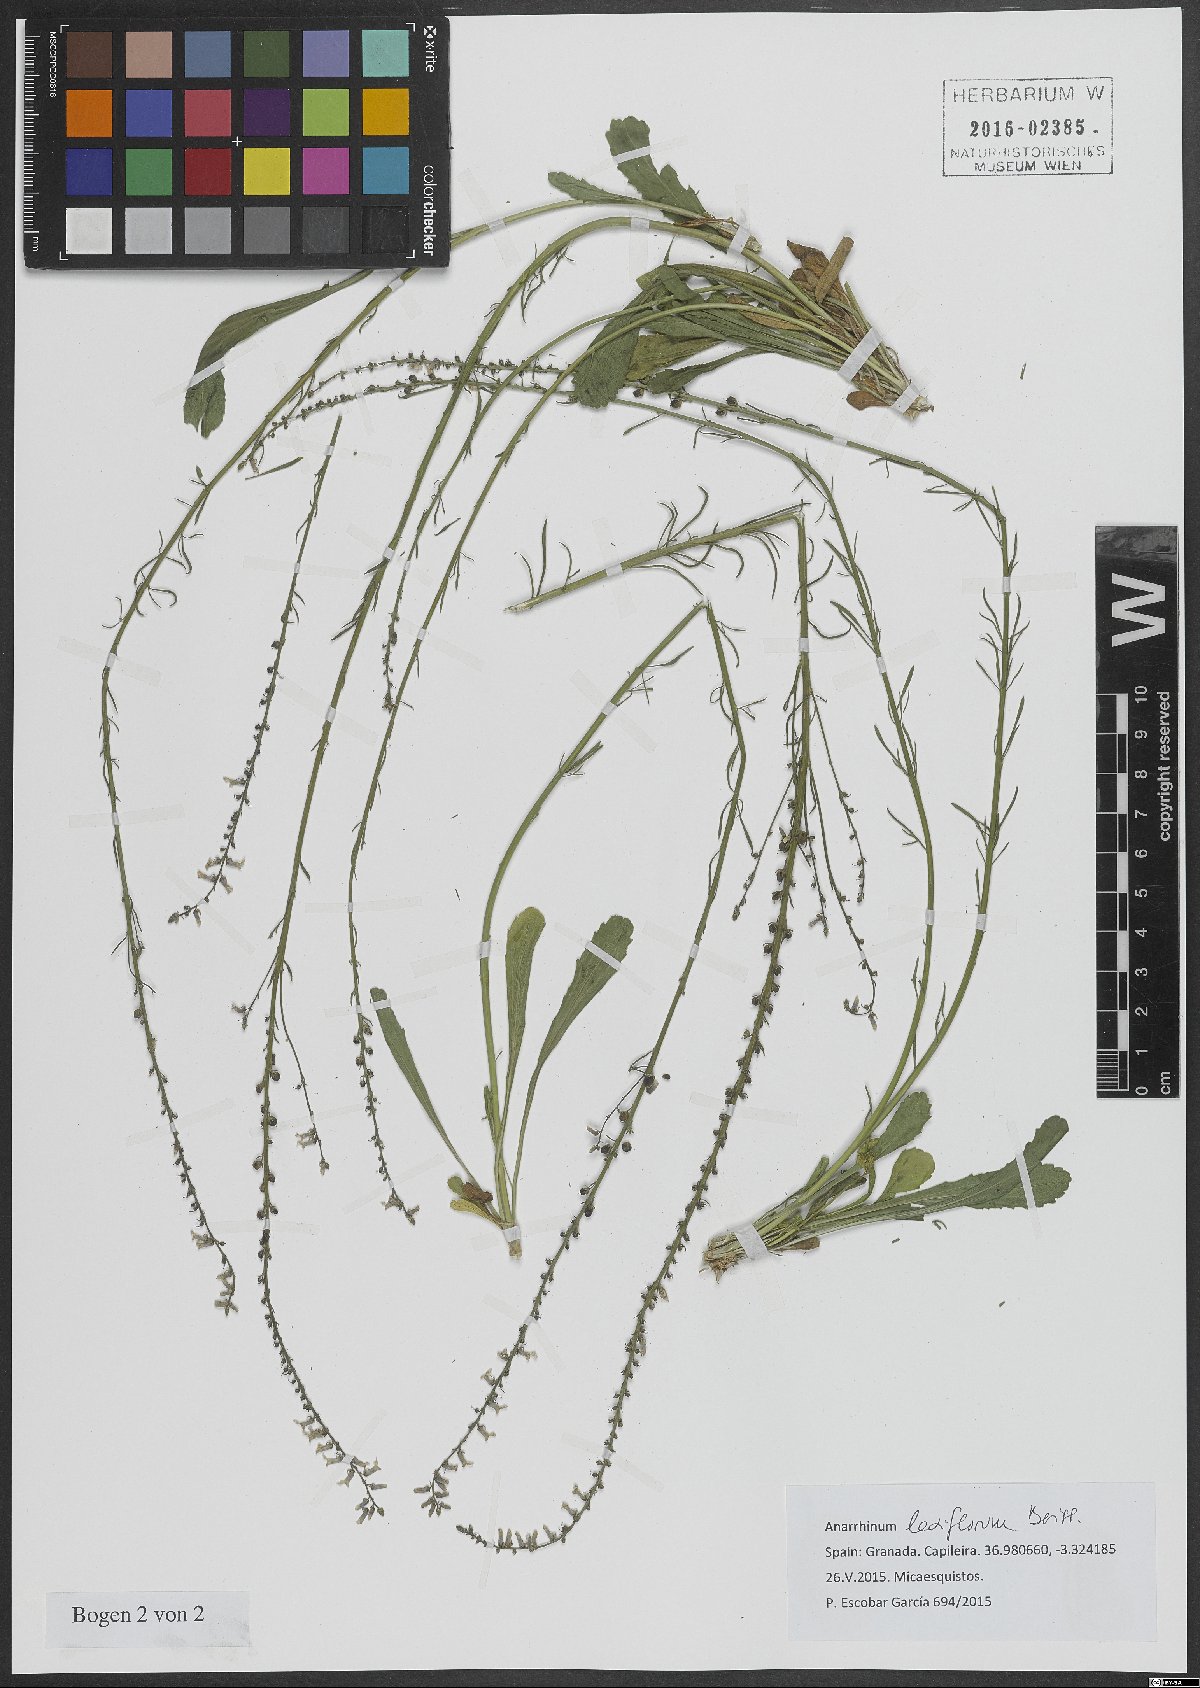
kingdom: Plantae
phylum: Tracheophyta
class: Magnoliopsida
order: Lamiales
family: Plantaginaceae
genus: Anarrhinum
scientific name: Anarrhinum laxiflorum
